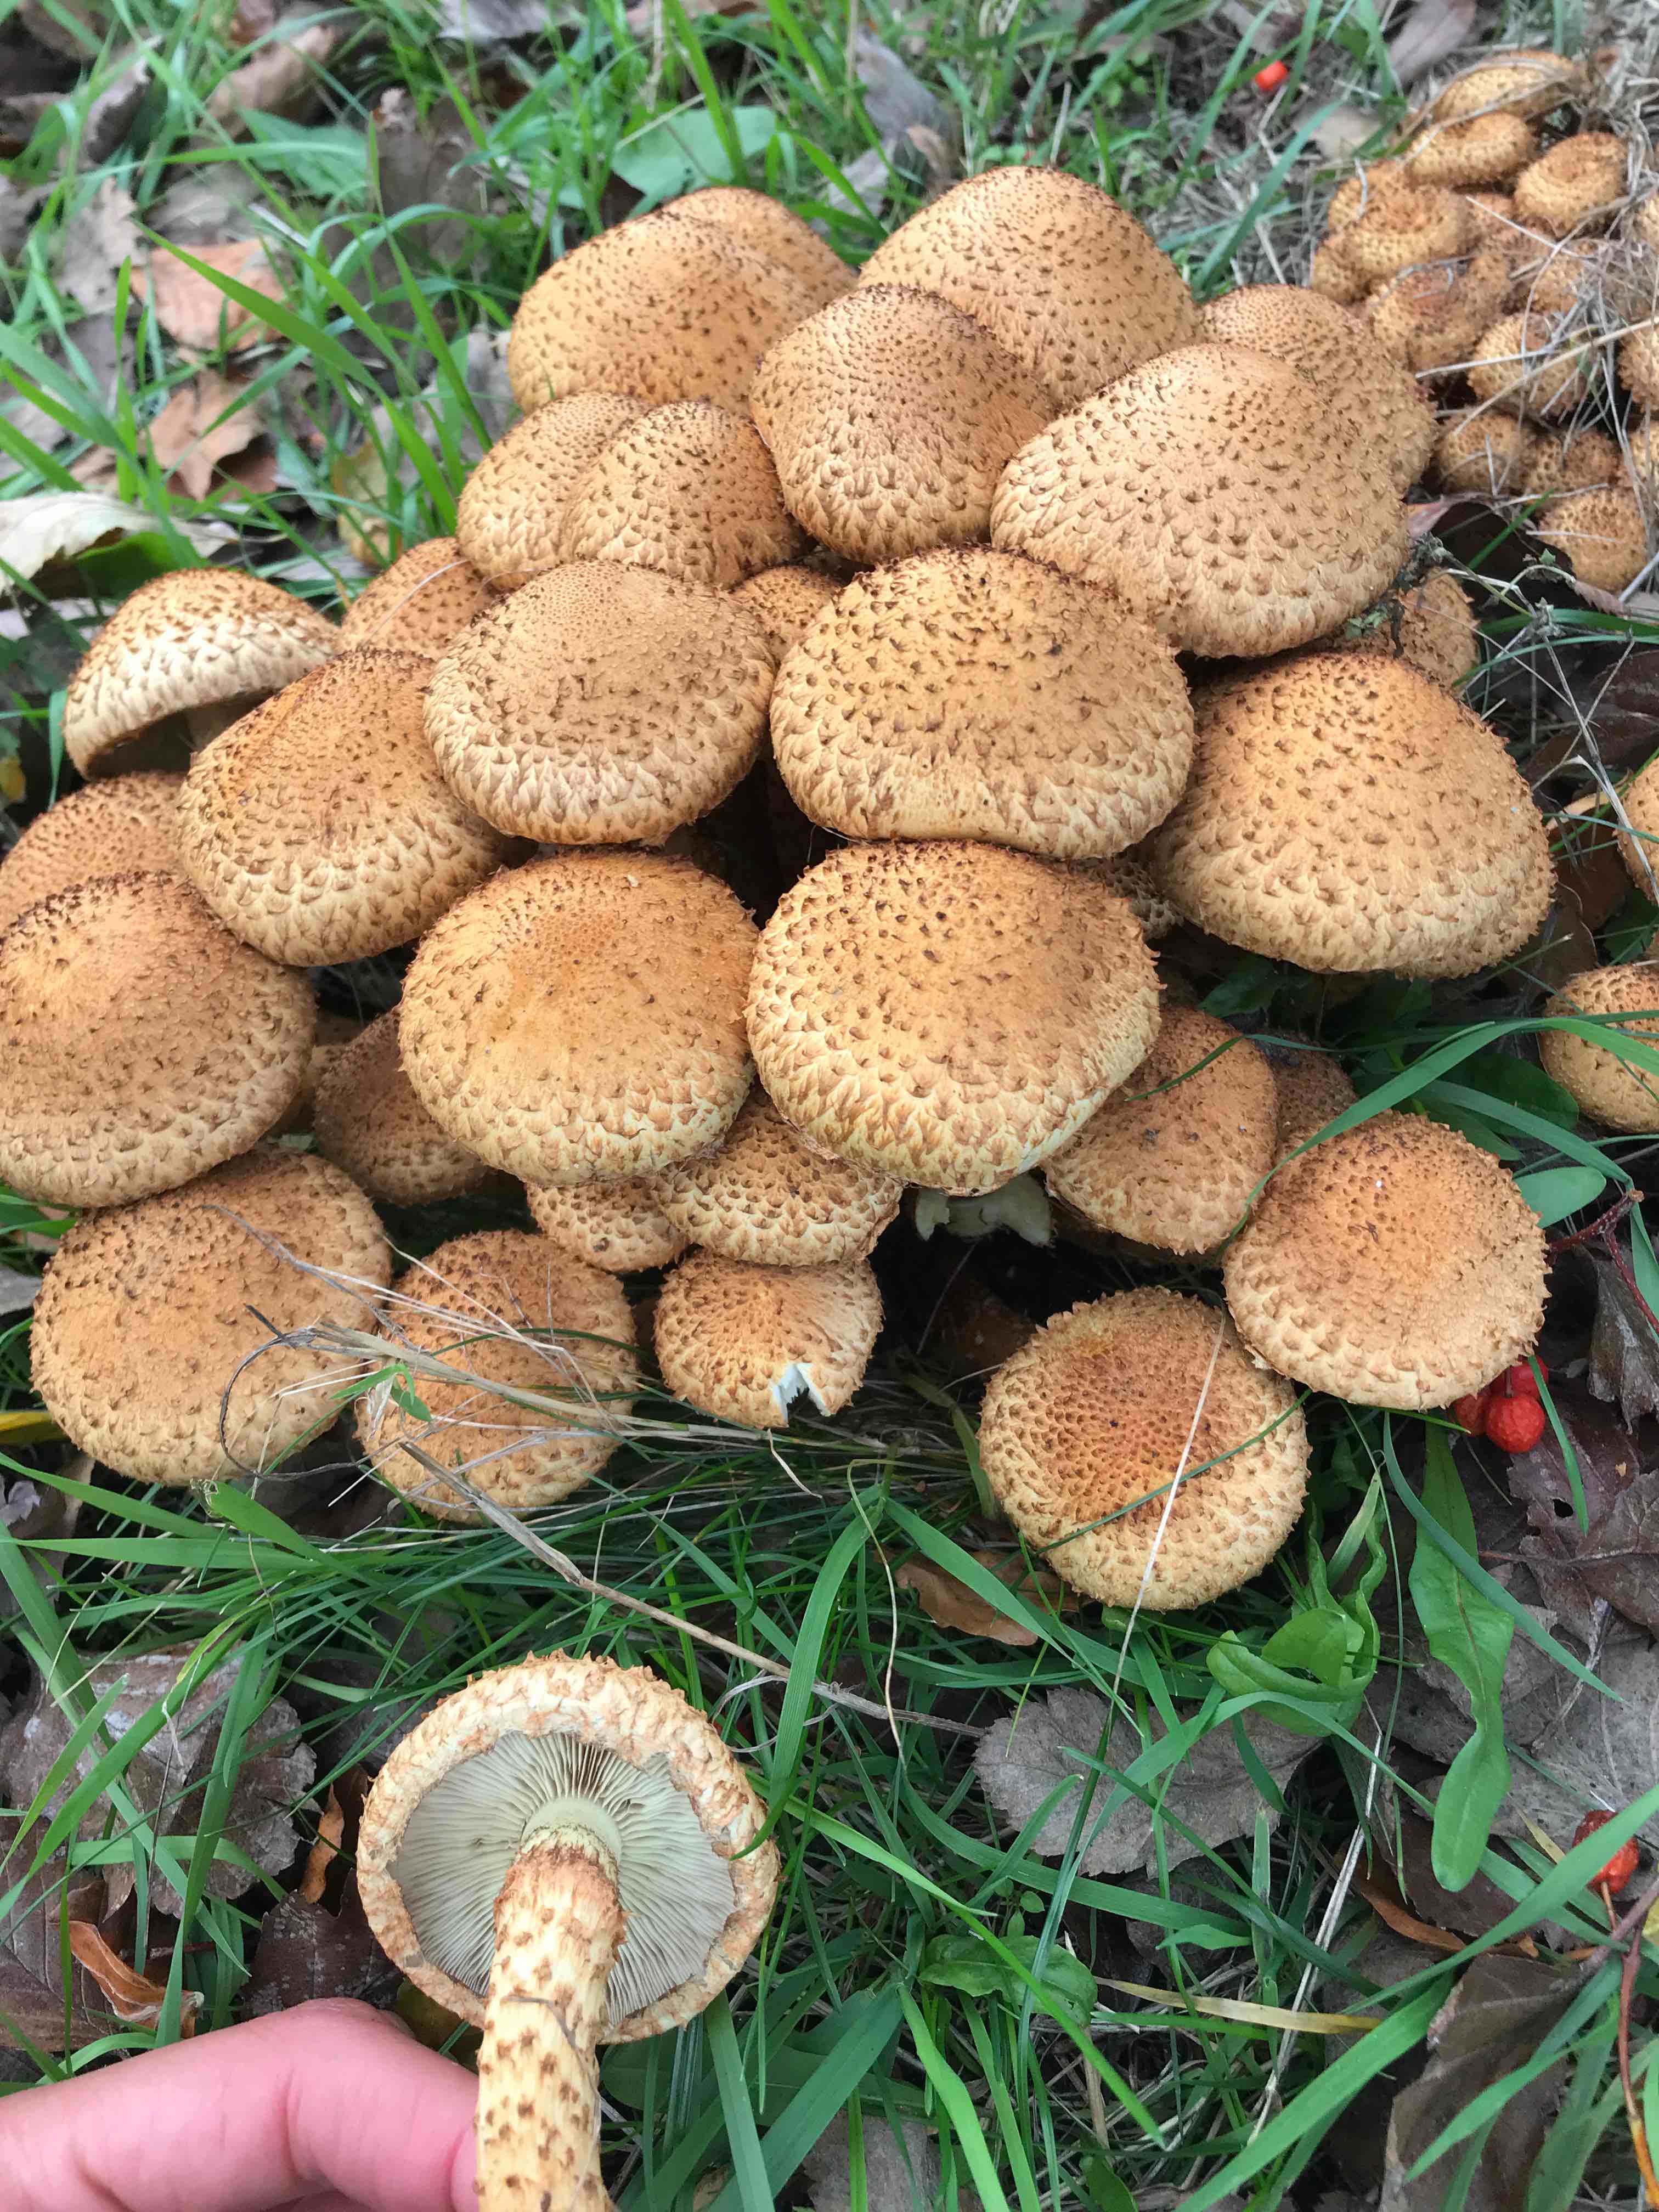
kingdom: Fungi
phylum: Basidiomycota
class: Agaricomycetes
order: Agaricales
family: Strophariaceae
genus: Pholiota
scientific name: Pholiota squarrosa
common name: krumskællet skælhat
